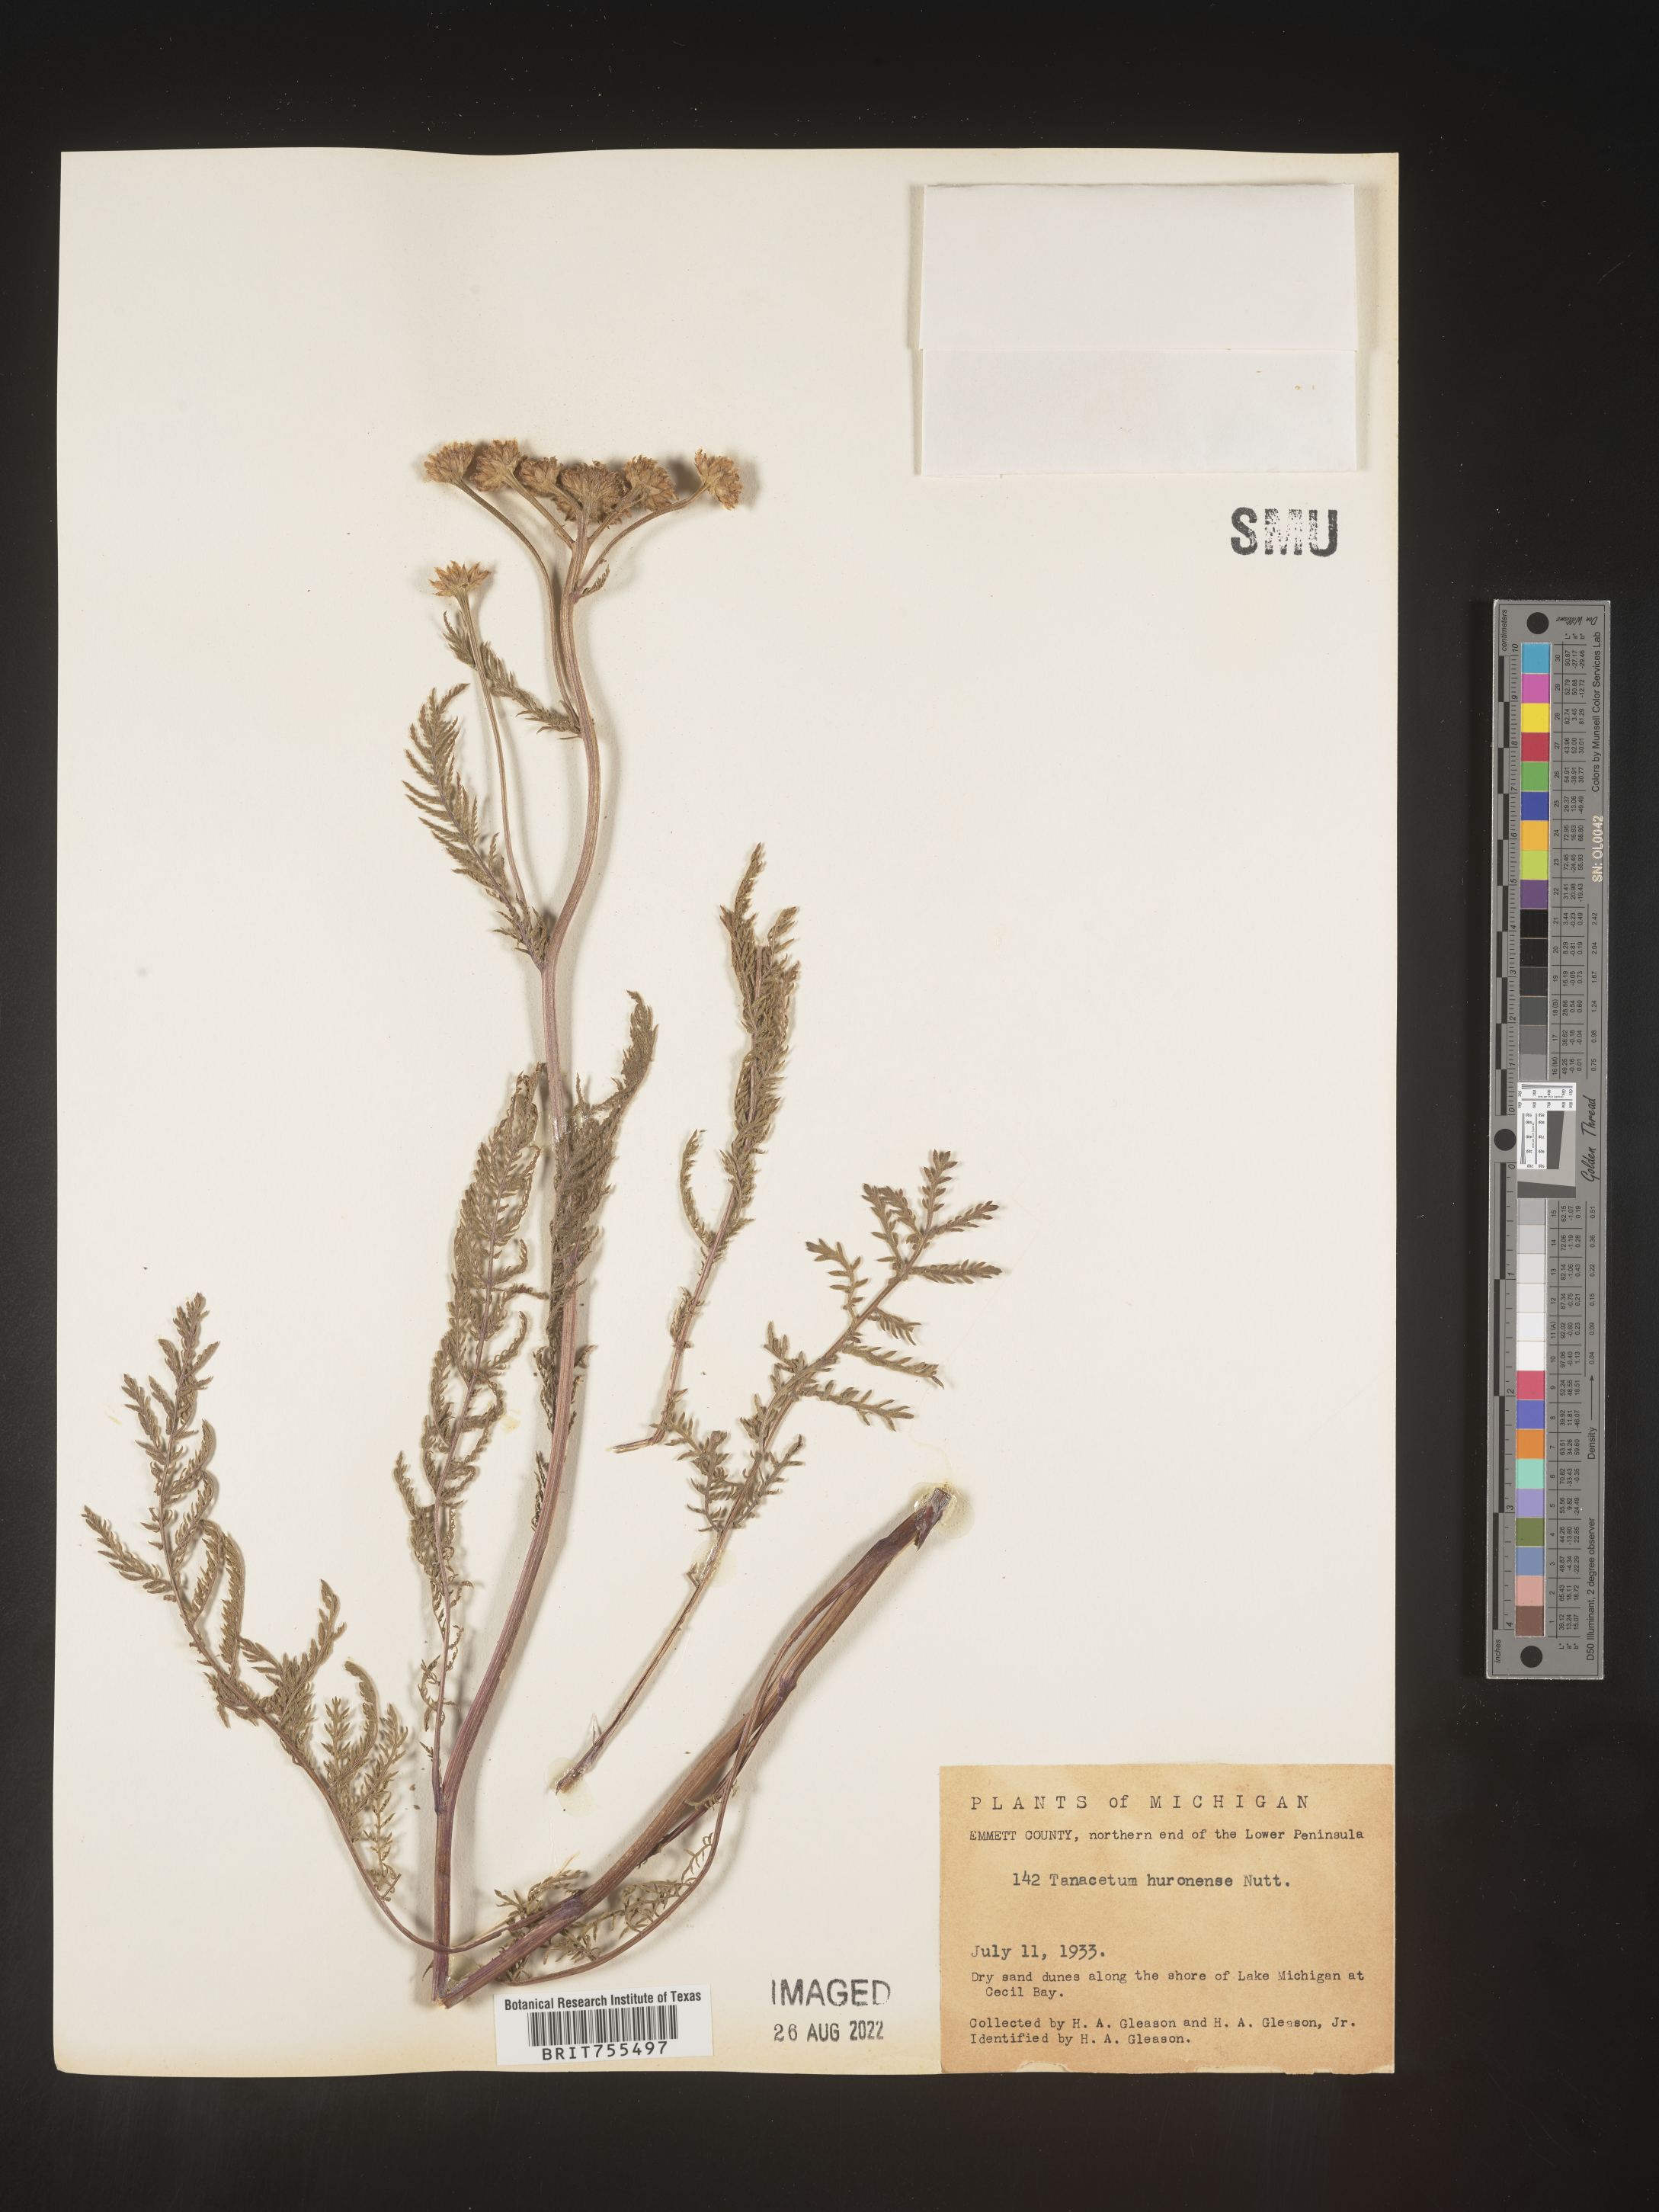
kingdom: Plantae
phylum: Tracheophyta
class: Magnoliopsida
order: Asterales
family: Asteraceae
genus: Tanacetum
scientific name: Tanacetum bipinnatum
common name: Dwarf tansy
